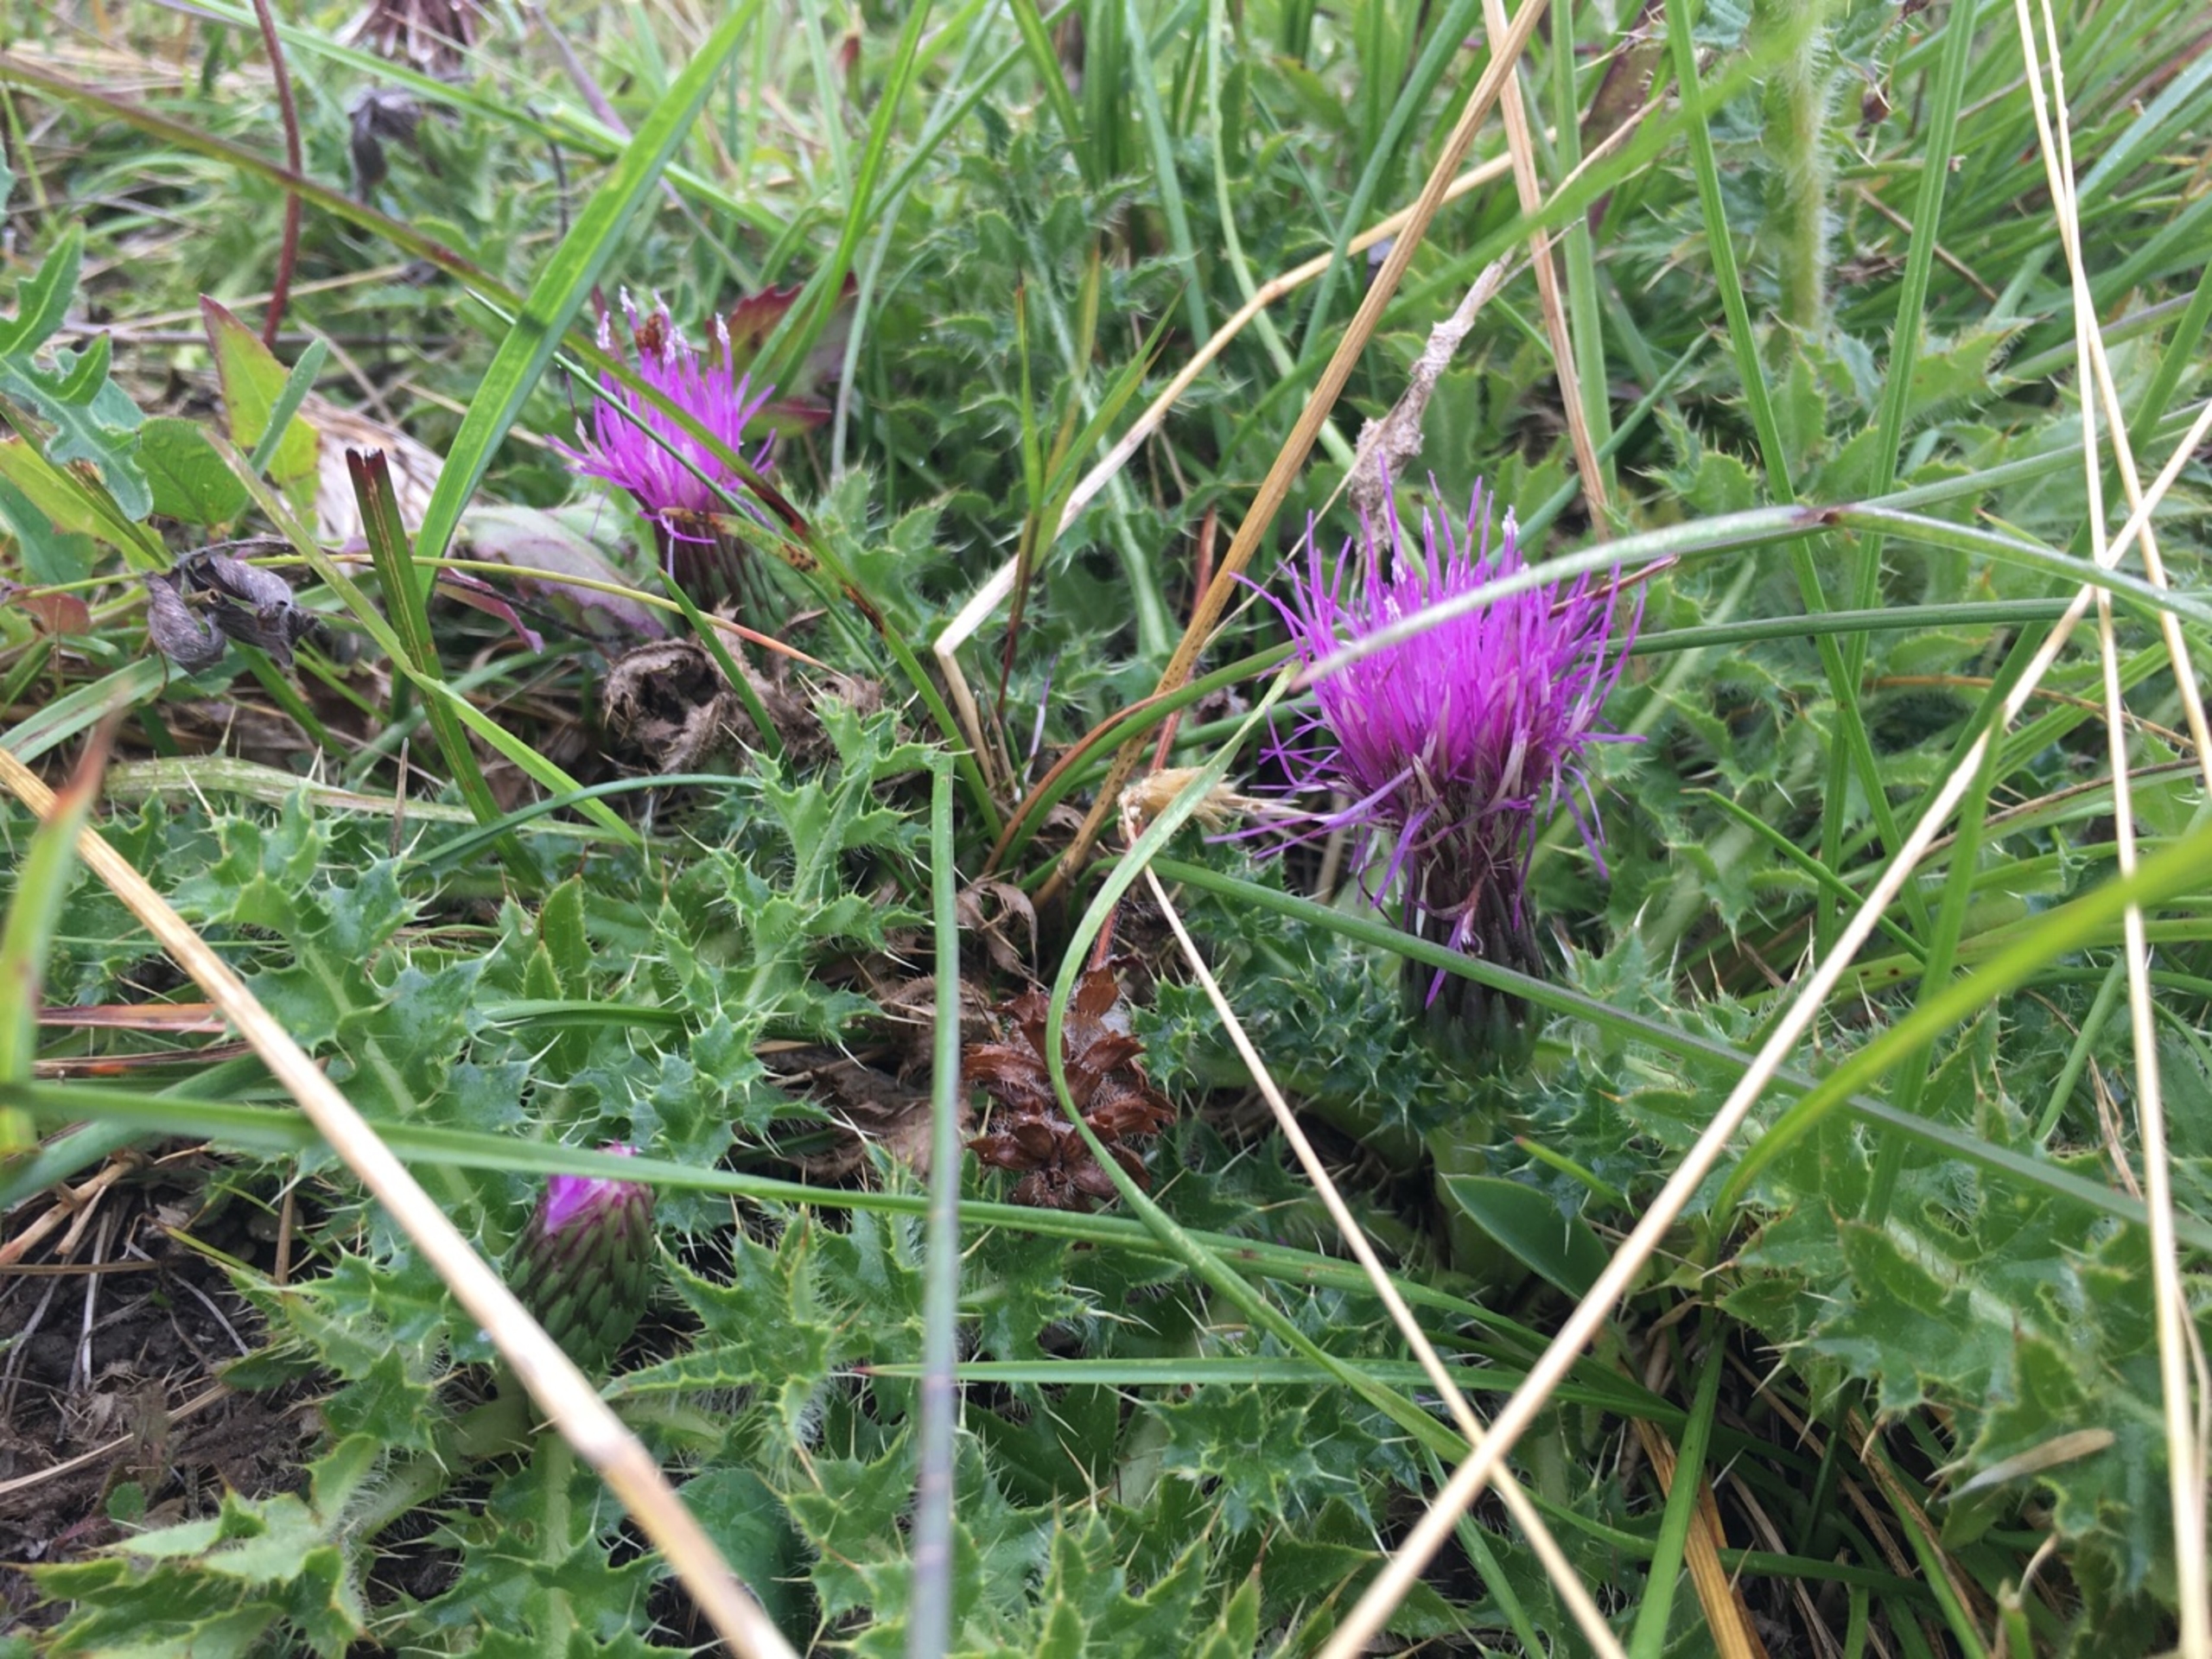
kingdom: Plantae
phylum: Tracheophyta
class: Magnoliopsida
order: Asterales
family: Asteraceae
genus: Cirsium
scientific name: Cirsium acaule
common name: Lav tidsel
